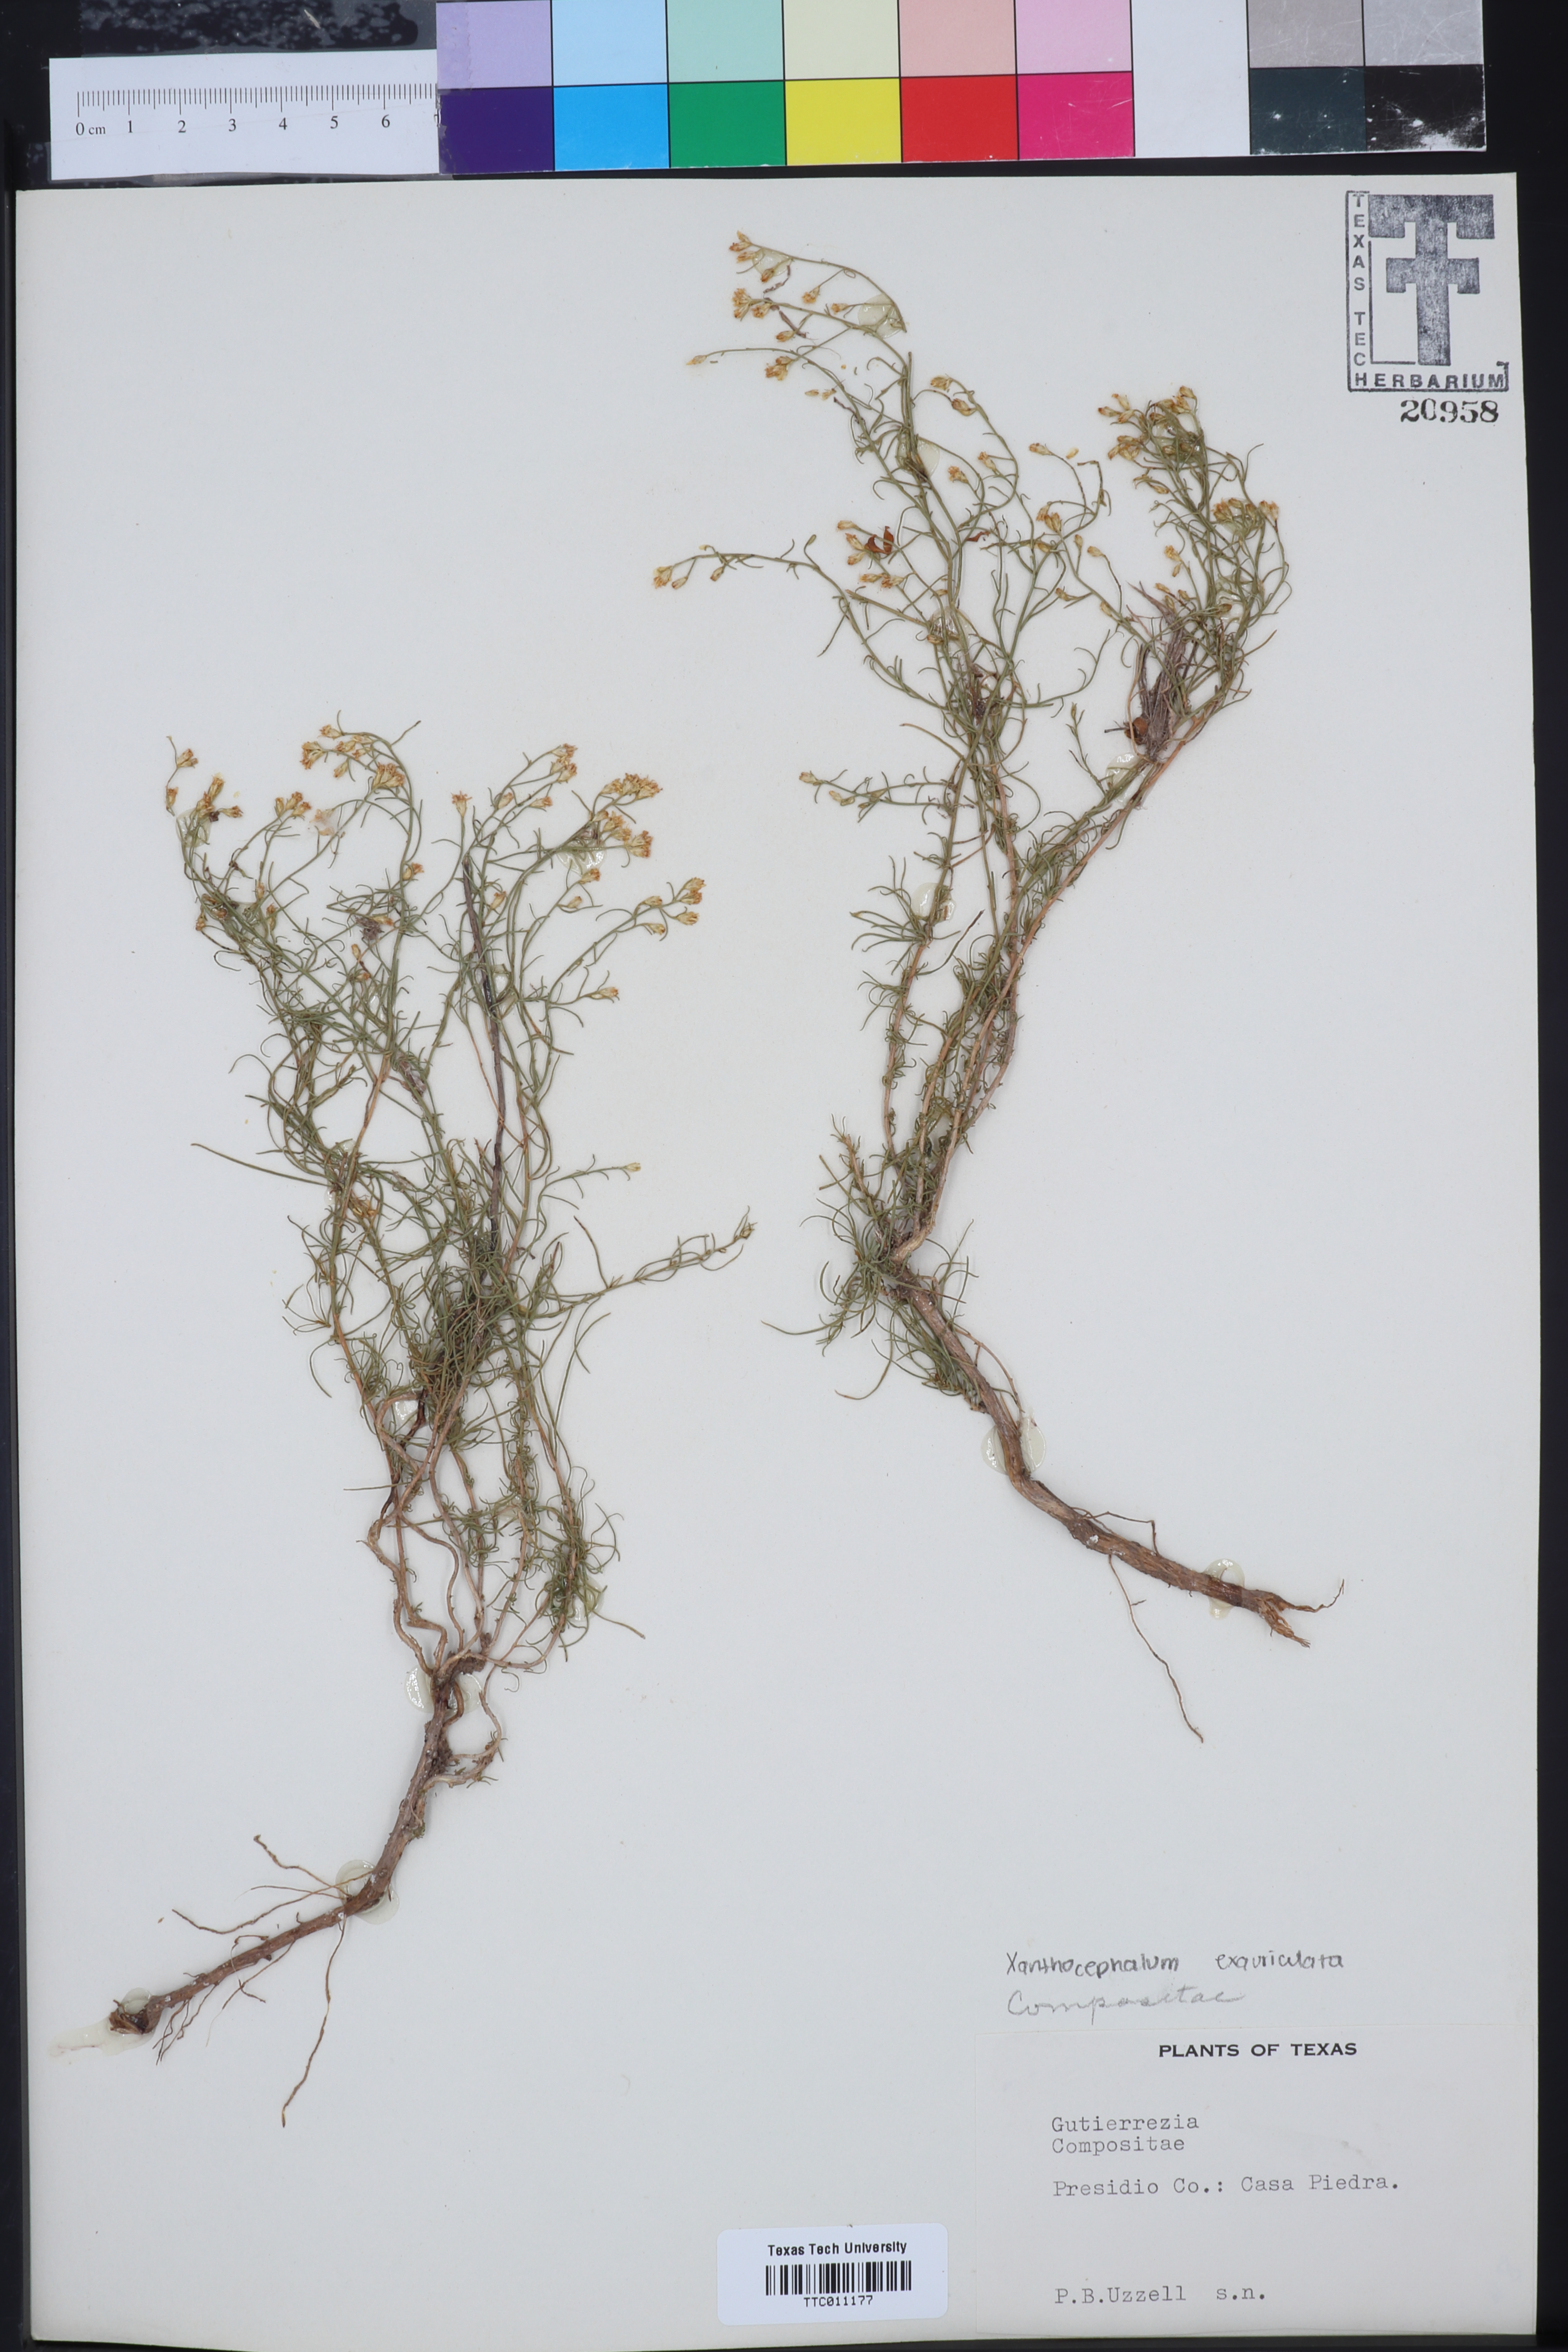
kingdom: Plantae
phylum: Tracheophyta
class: Magnoliopsida
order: Asterales
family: Asteraceae
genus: Xanthocephalum
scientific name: Xanthocephalum
